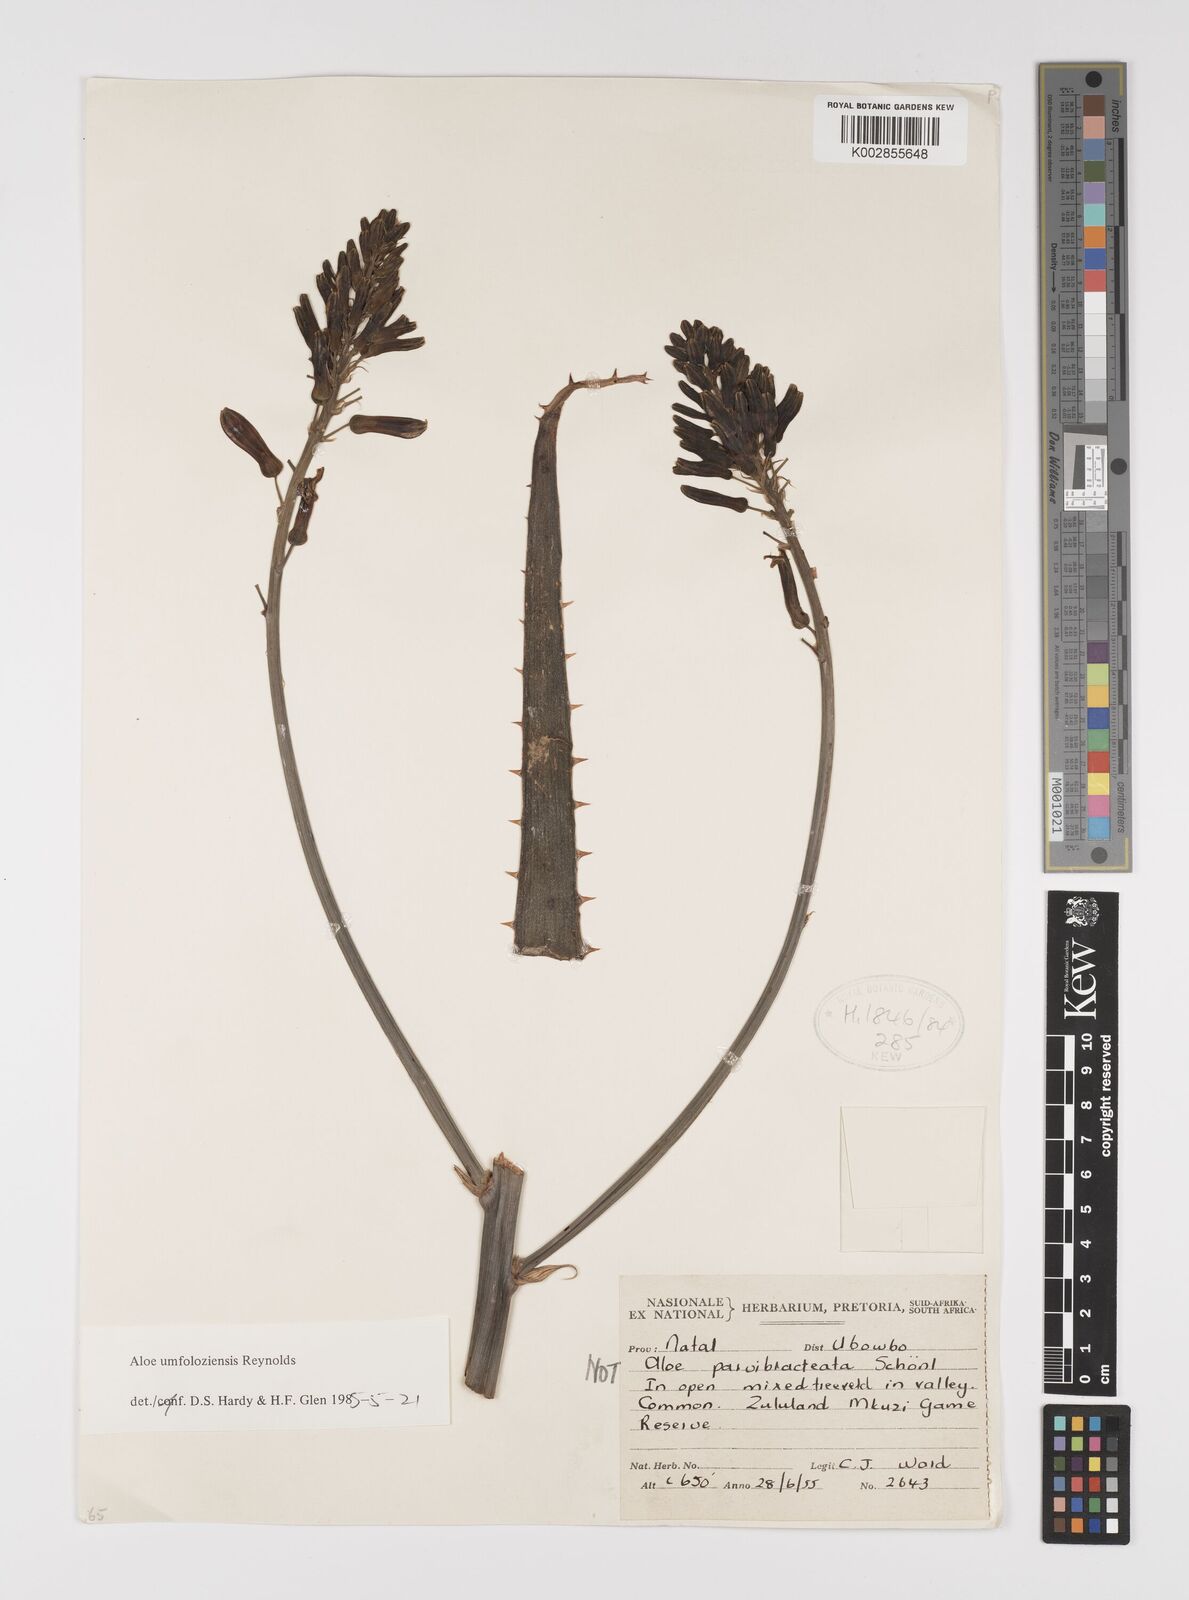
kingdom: Plantae
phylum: Tracheophyta
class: Liliopsida
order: Asparagales
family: Asphodelaceae
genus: Aloe
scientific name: Aloe umfoloziensis
